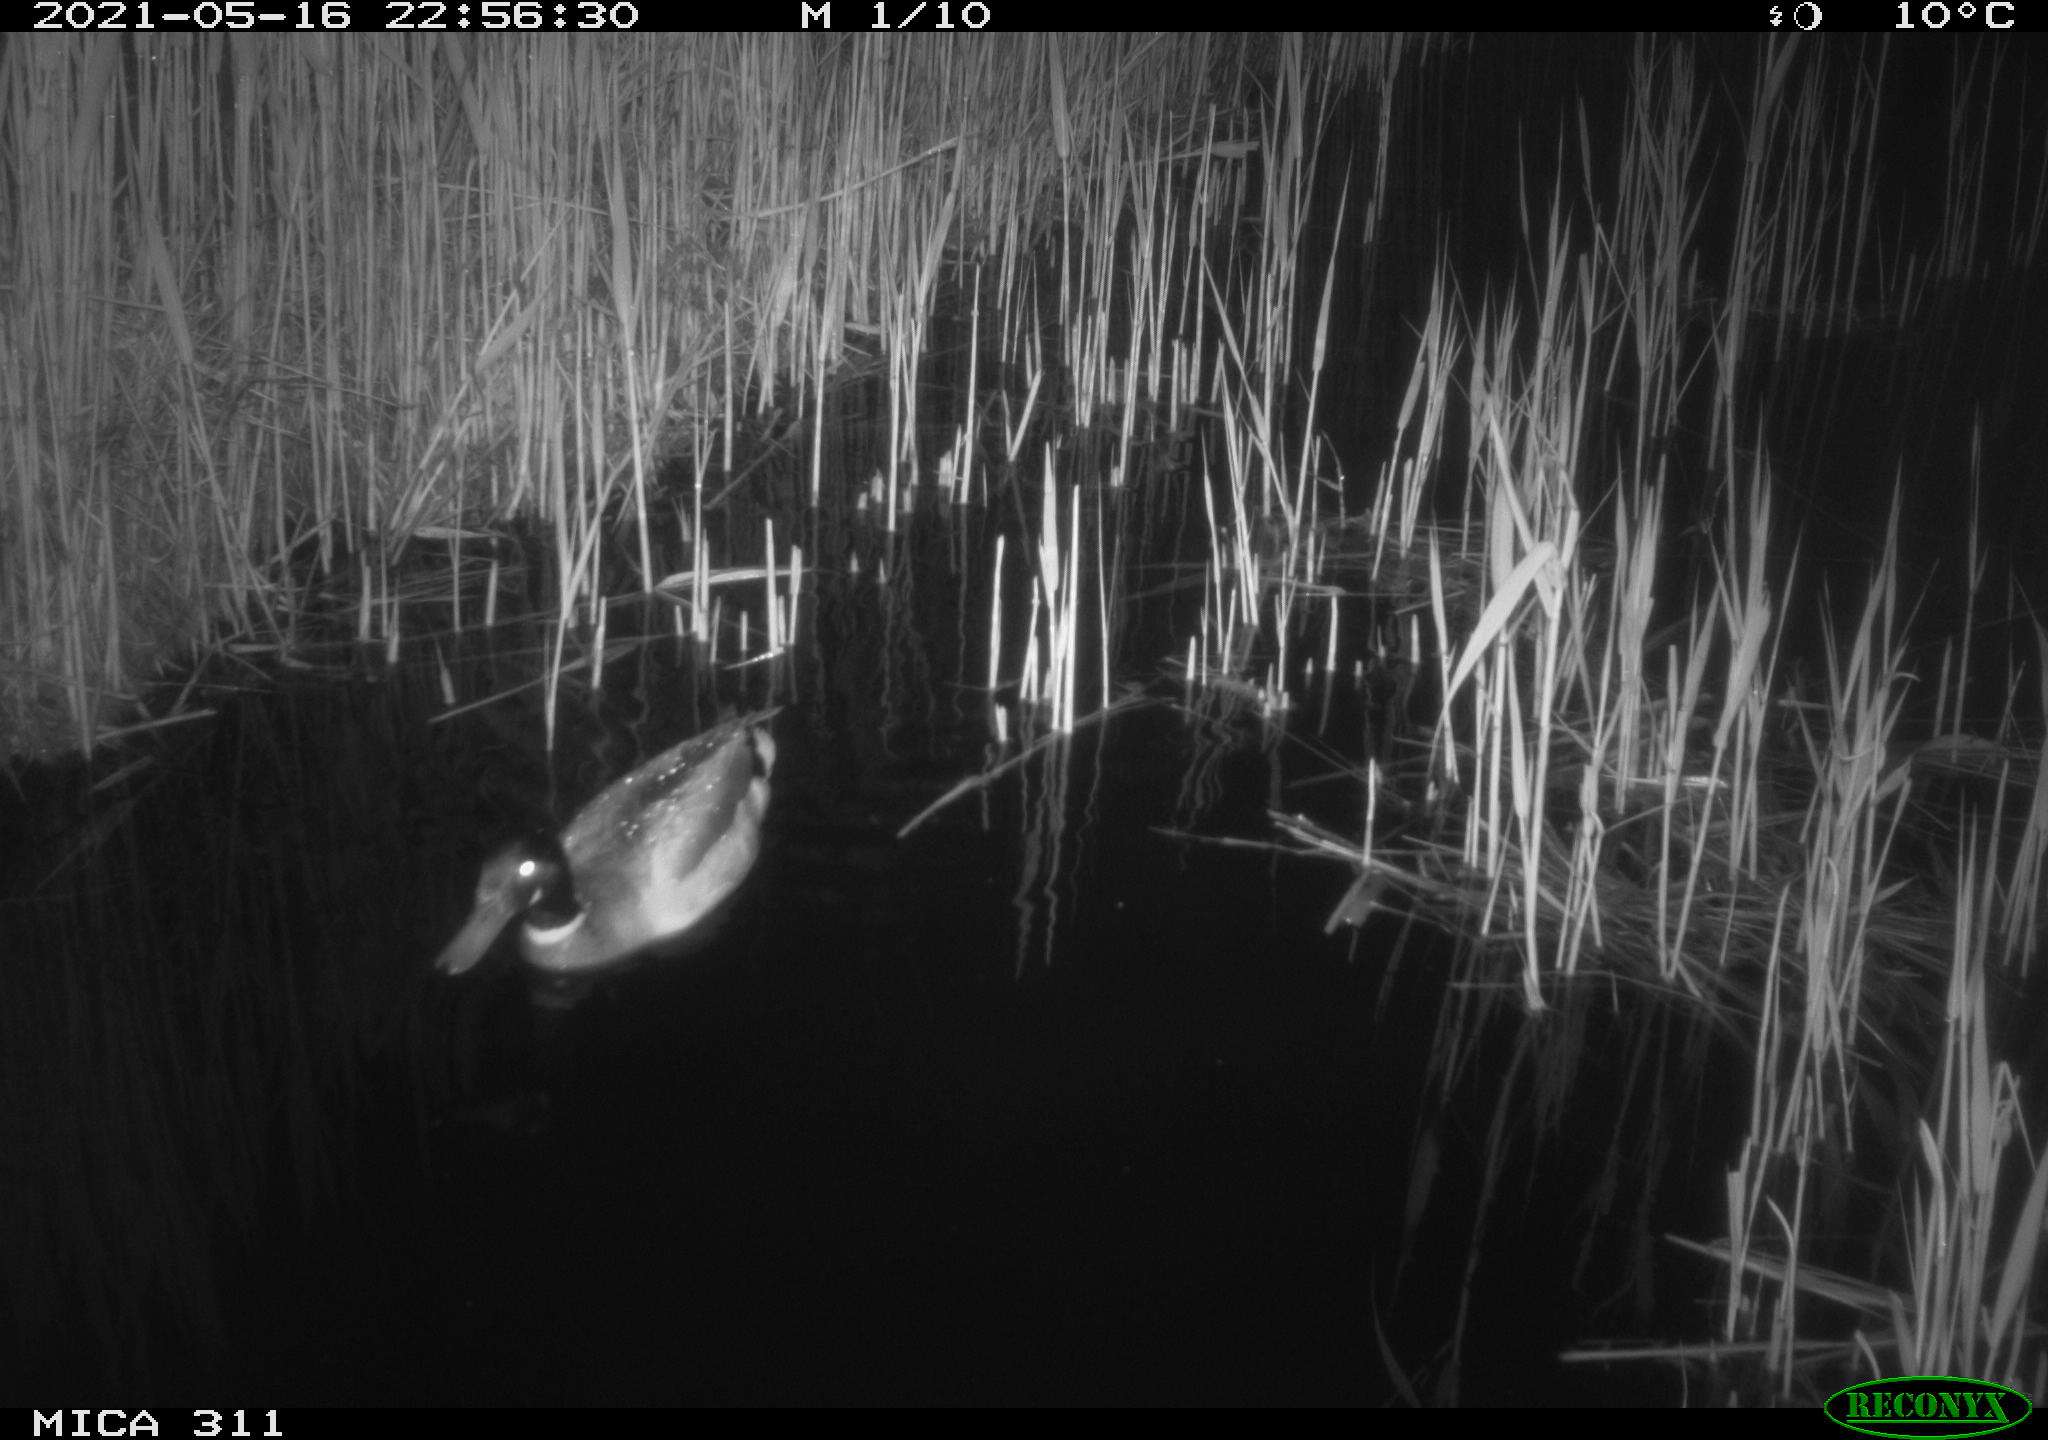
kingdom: Animalia
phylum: Chordata
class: Aves
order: Anseriformes
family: Anatidae
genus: Anas
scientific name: Anas platyrhynchos
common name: Mallard
